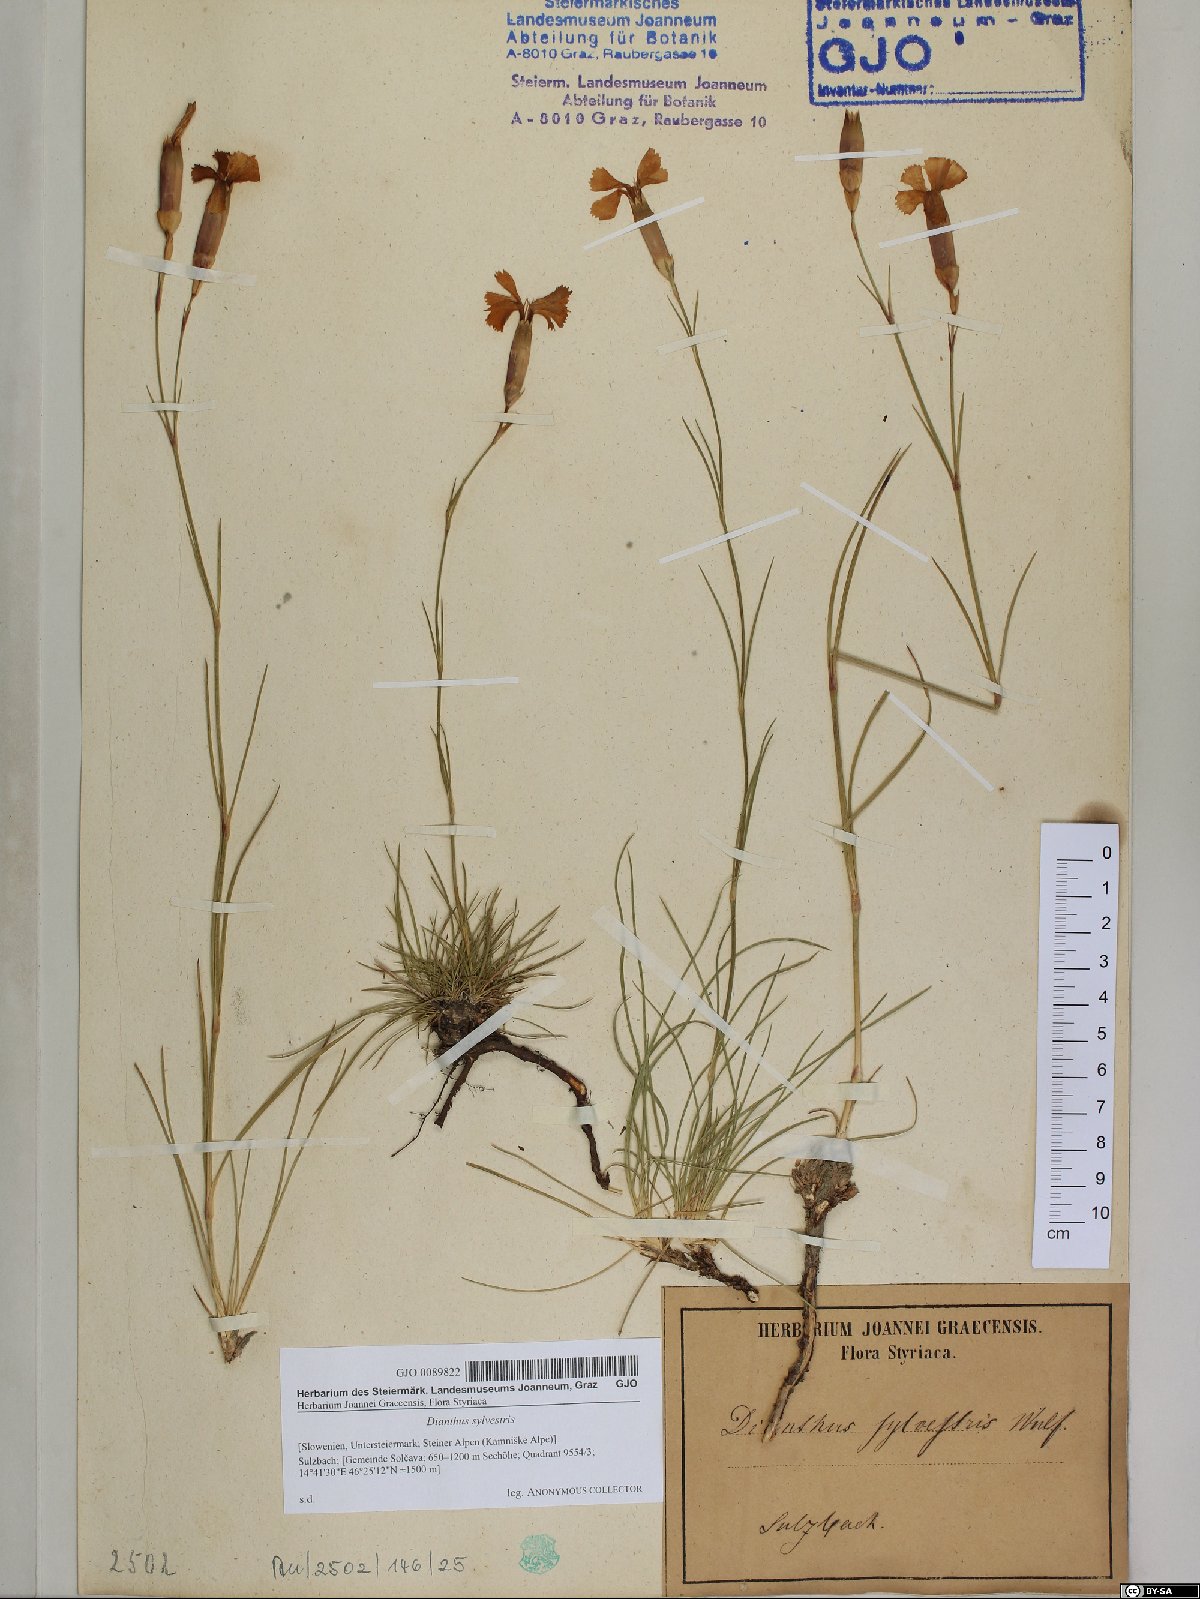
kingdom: Plantae
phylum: Tracheophyta
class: Magnoliopsida
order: Caryophyllales
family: Caryophyllaceae
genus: Dianthus
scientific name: Dianthus sylvestris
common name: Wood pink
